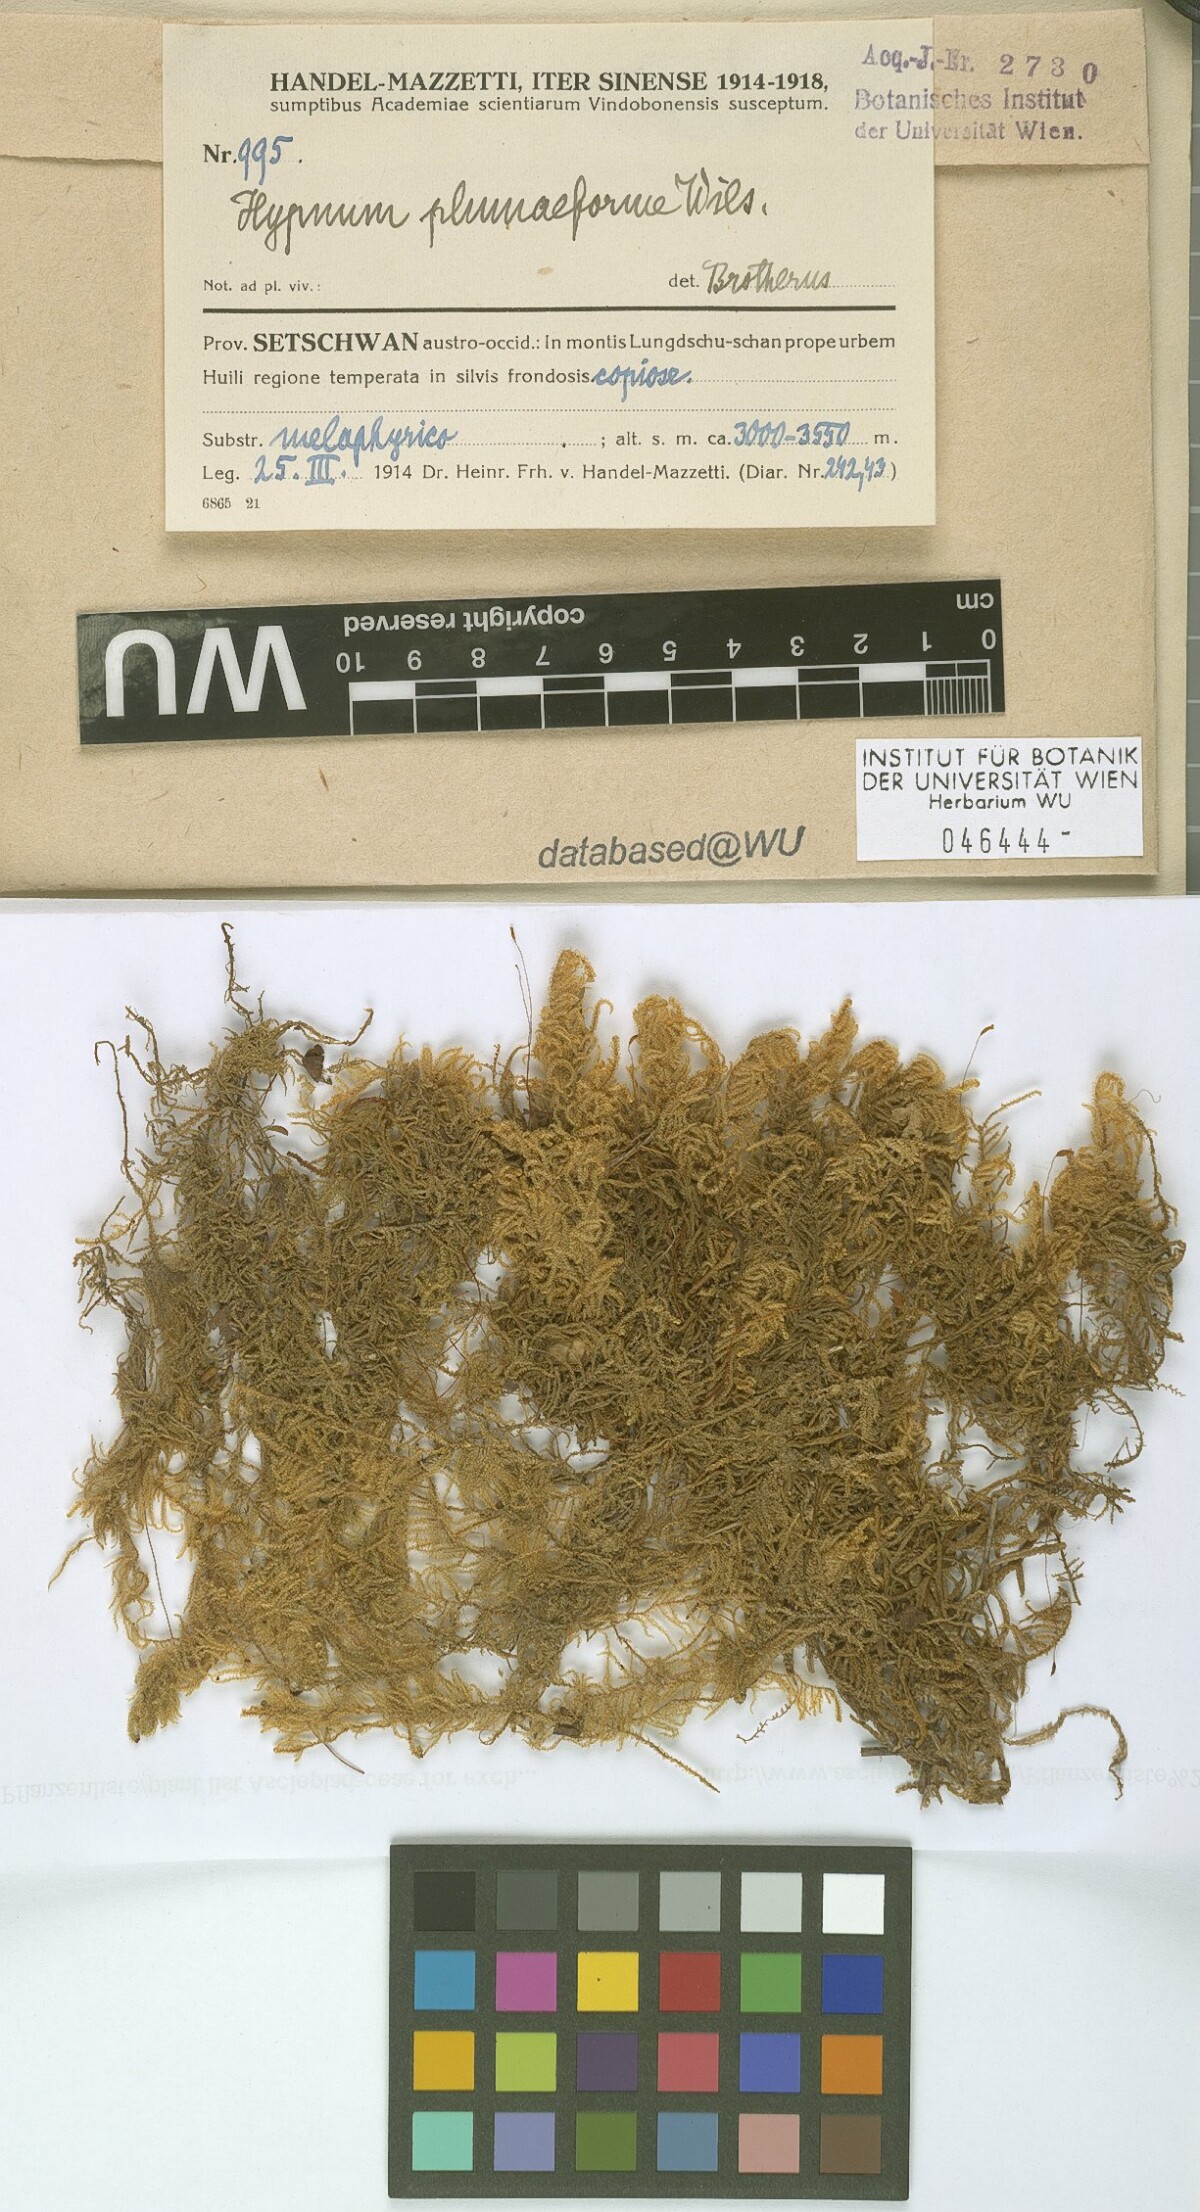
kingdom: Plantae
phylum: Bryophyta
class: Bryopsida
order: Hypnales
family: Hypnaceae
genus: Hypnum
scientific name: Hypnum plumaeforme
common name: Cypress-leaved plaitmoss
